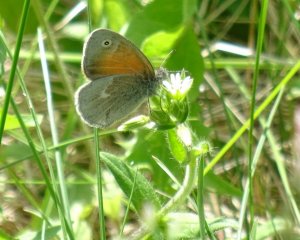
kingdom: Animalia
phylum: Arthropoda
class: Insecta
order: Lepidoptera
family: Nymphalidae
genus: Coenonympha
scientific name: Coenonympha tullia
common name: Large Heath
